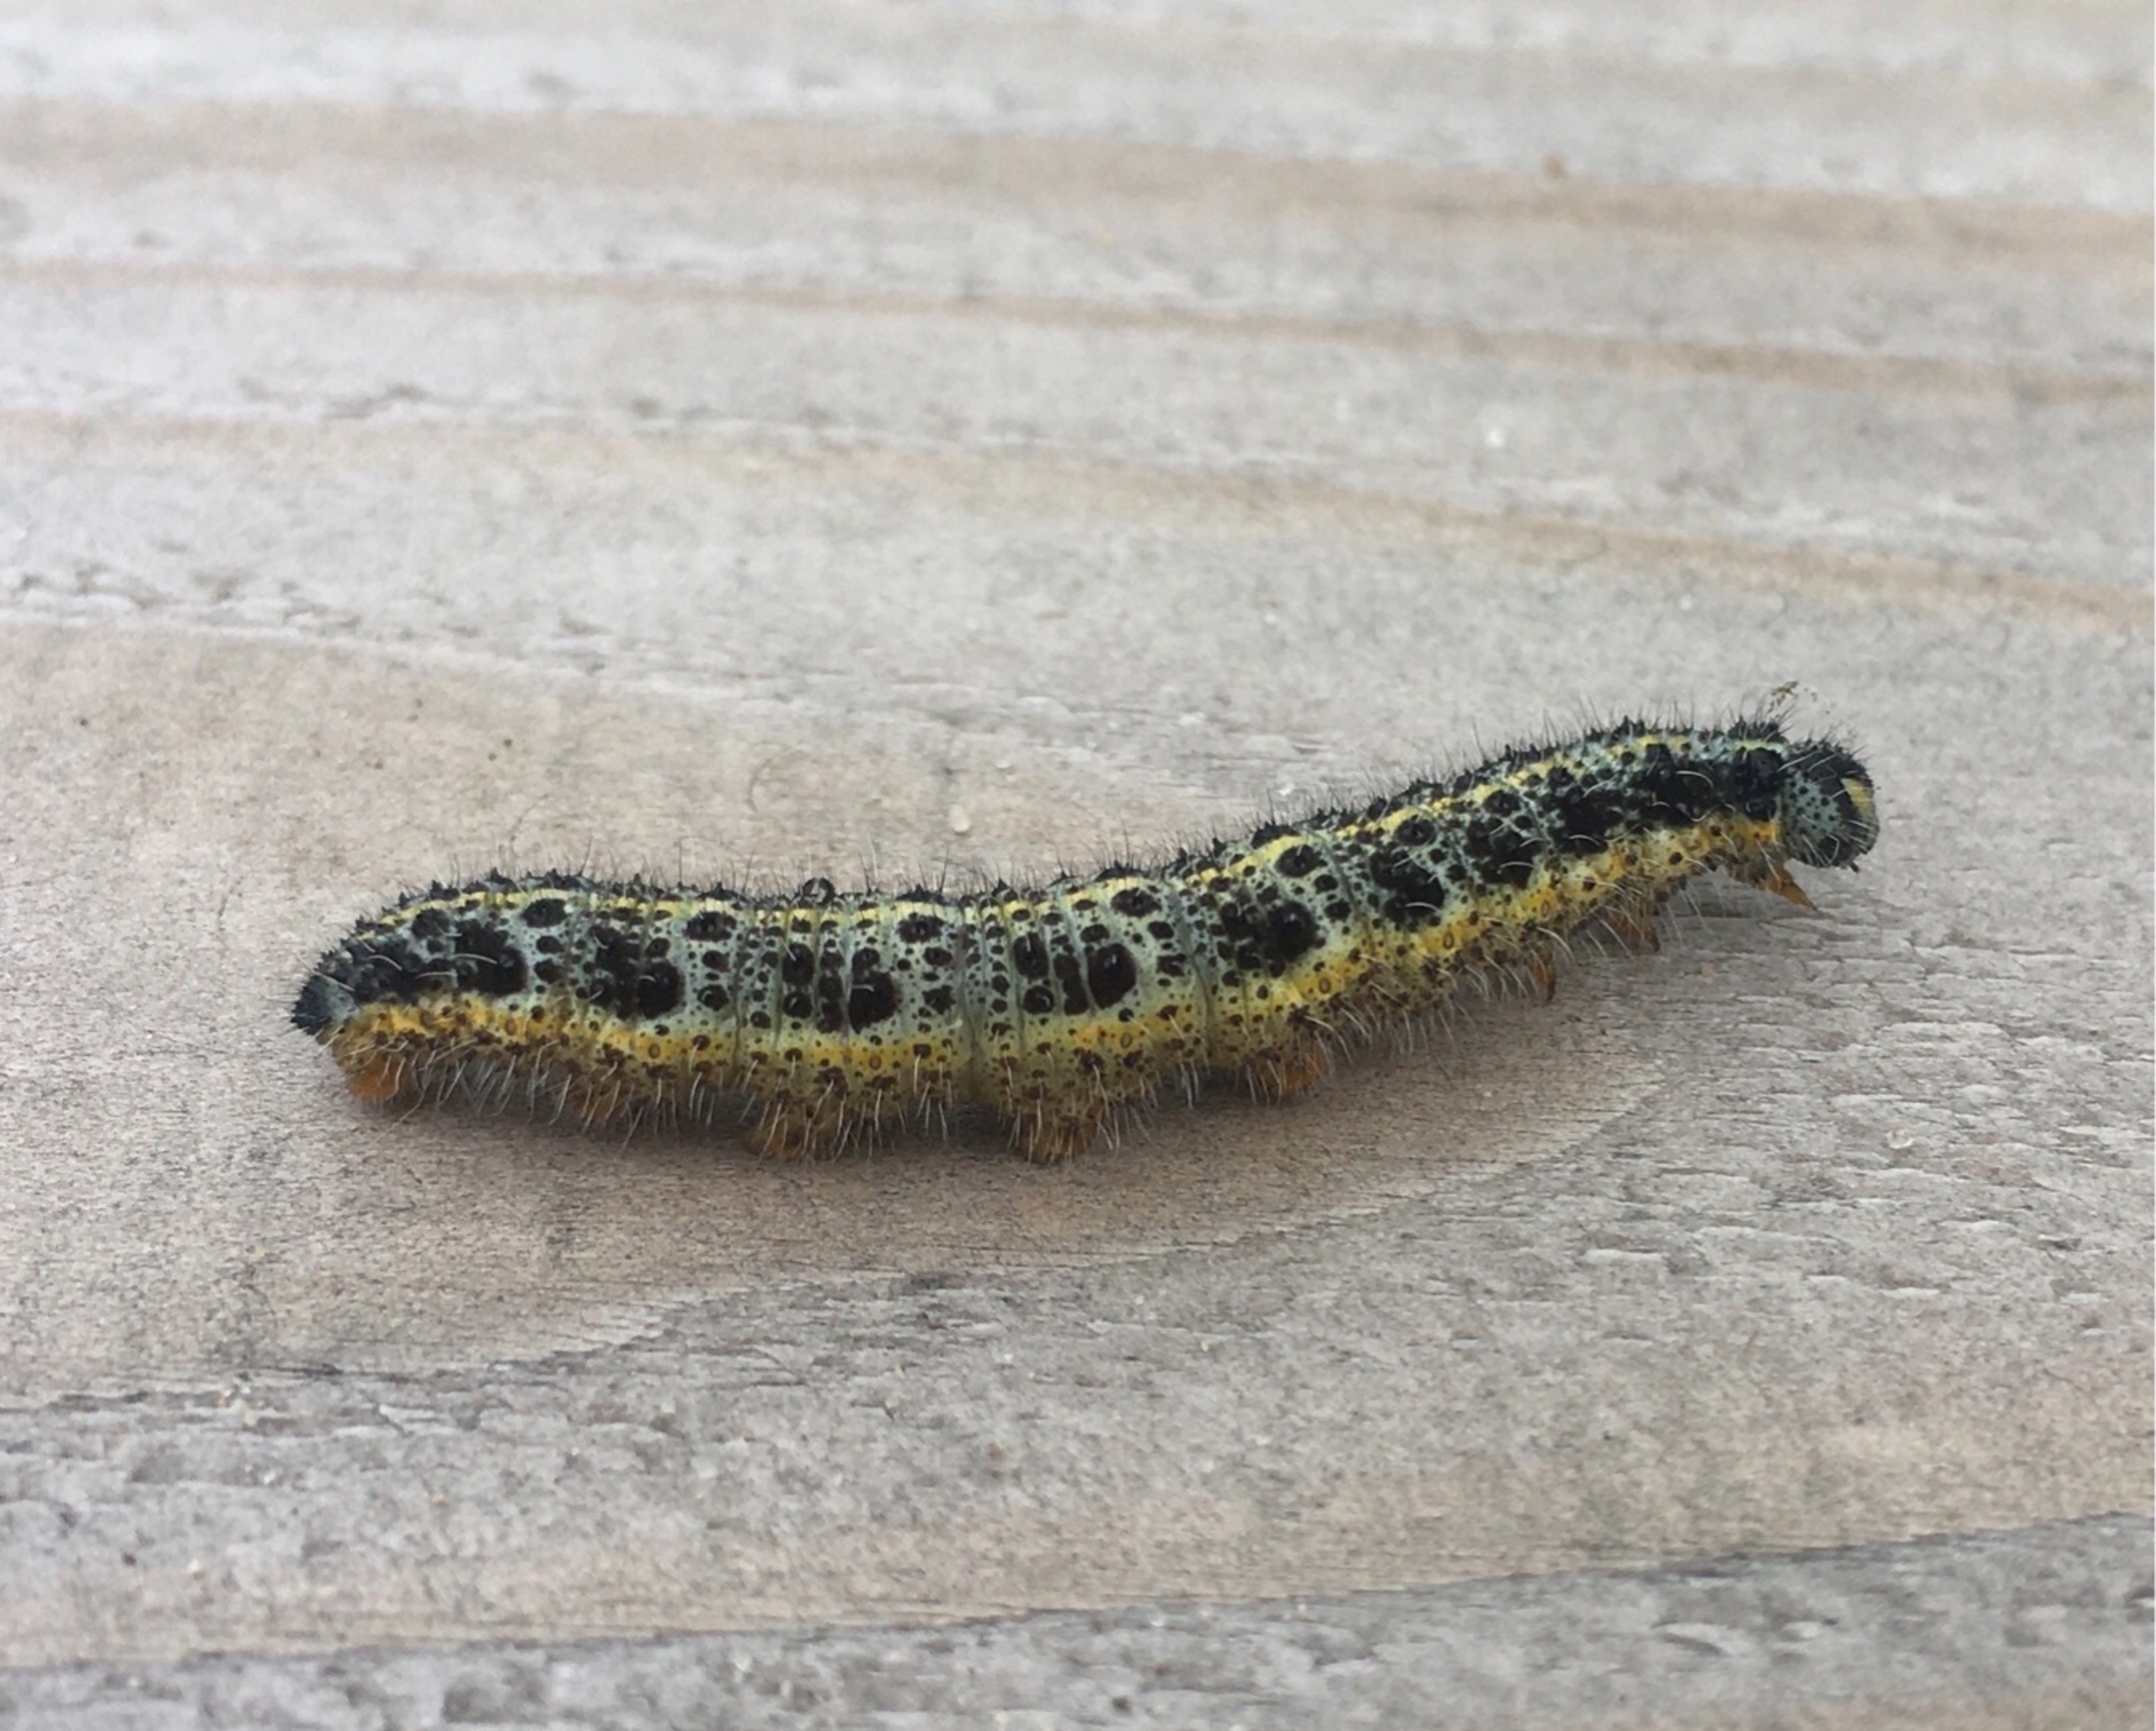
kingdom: Animalia
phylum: Arthropoda
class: Insecta
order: Lepidoptera
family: Pieridae
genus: Pieris
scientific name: Pieris brassicae
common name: Stor kålsommerfugl
